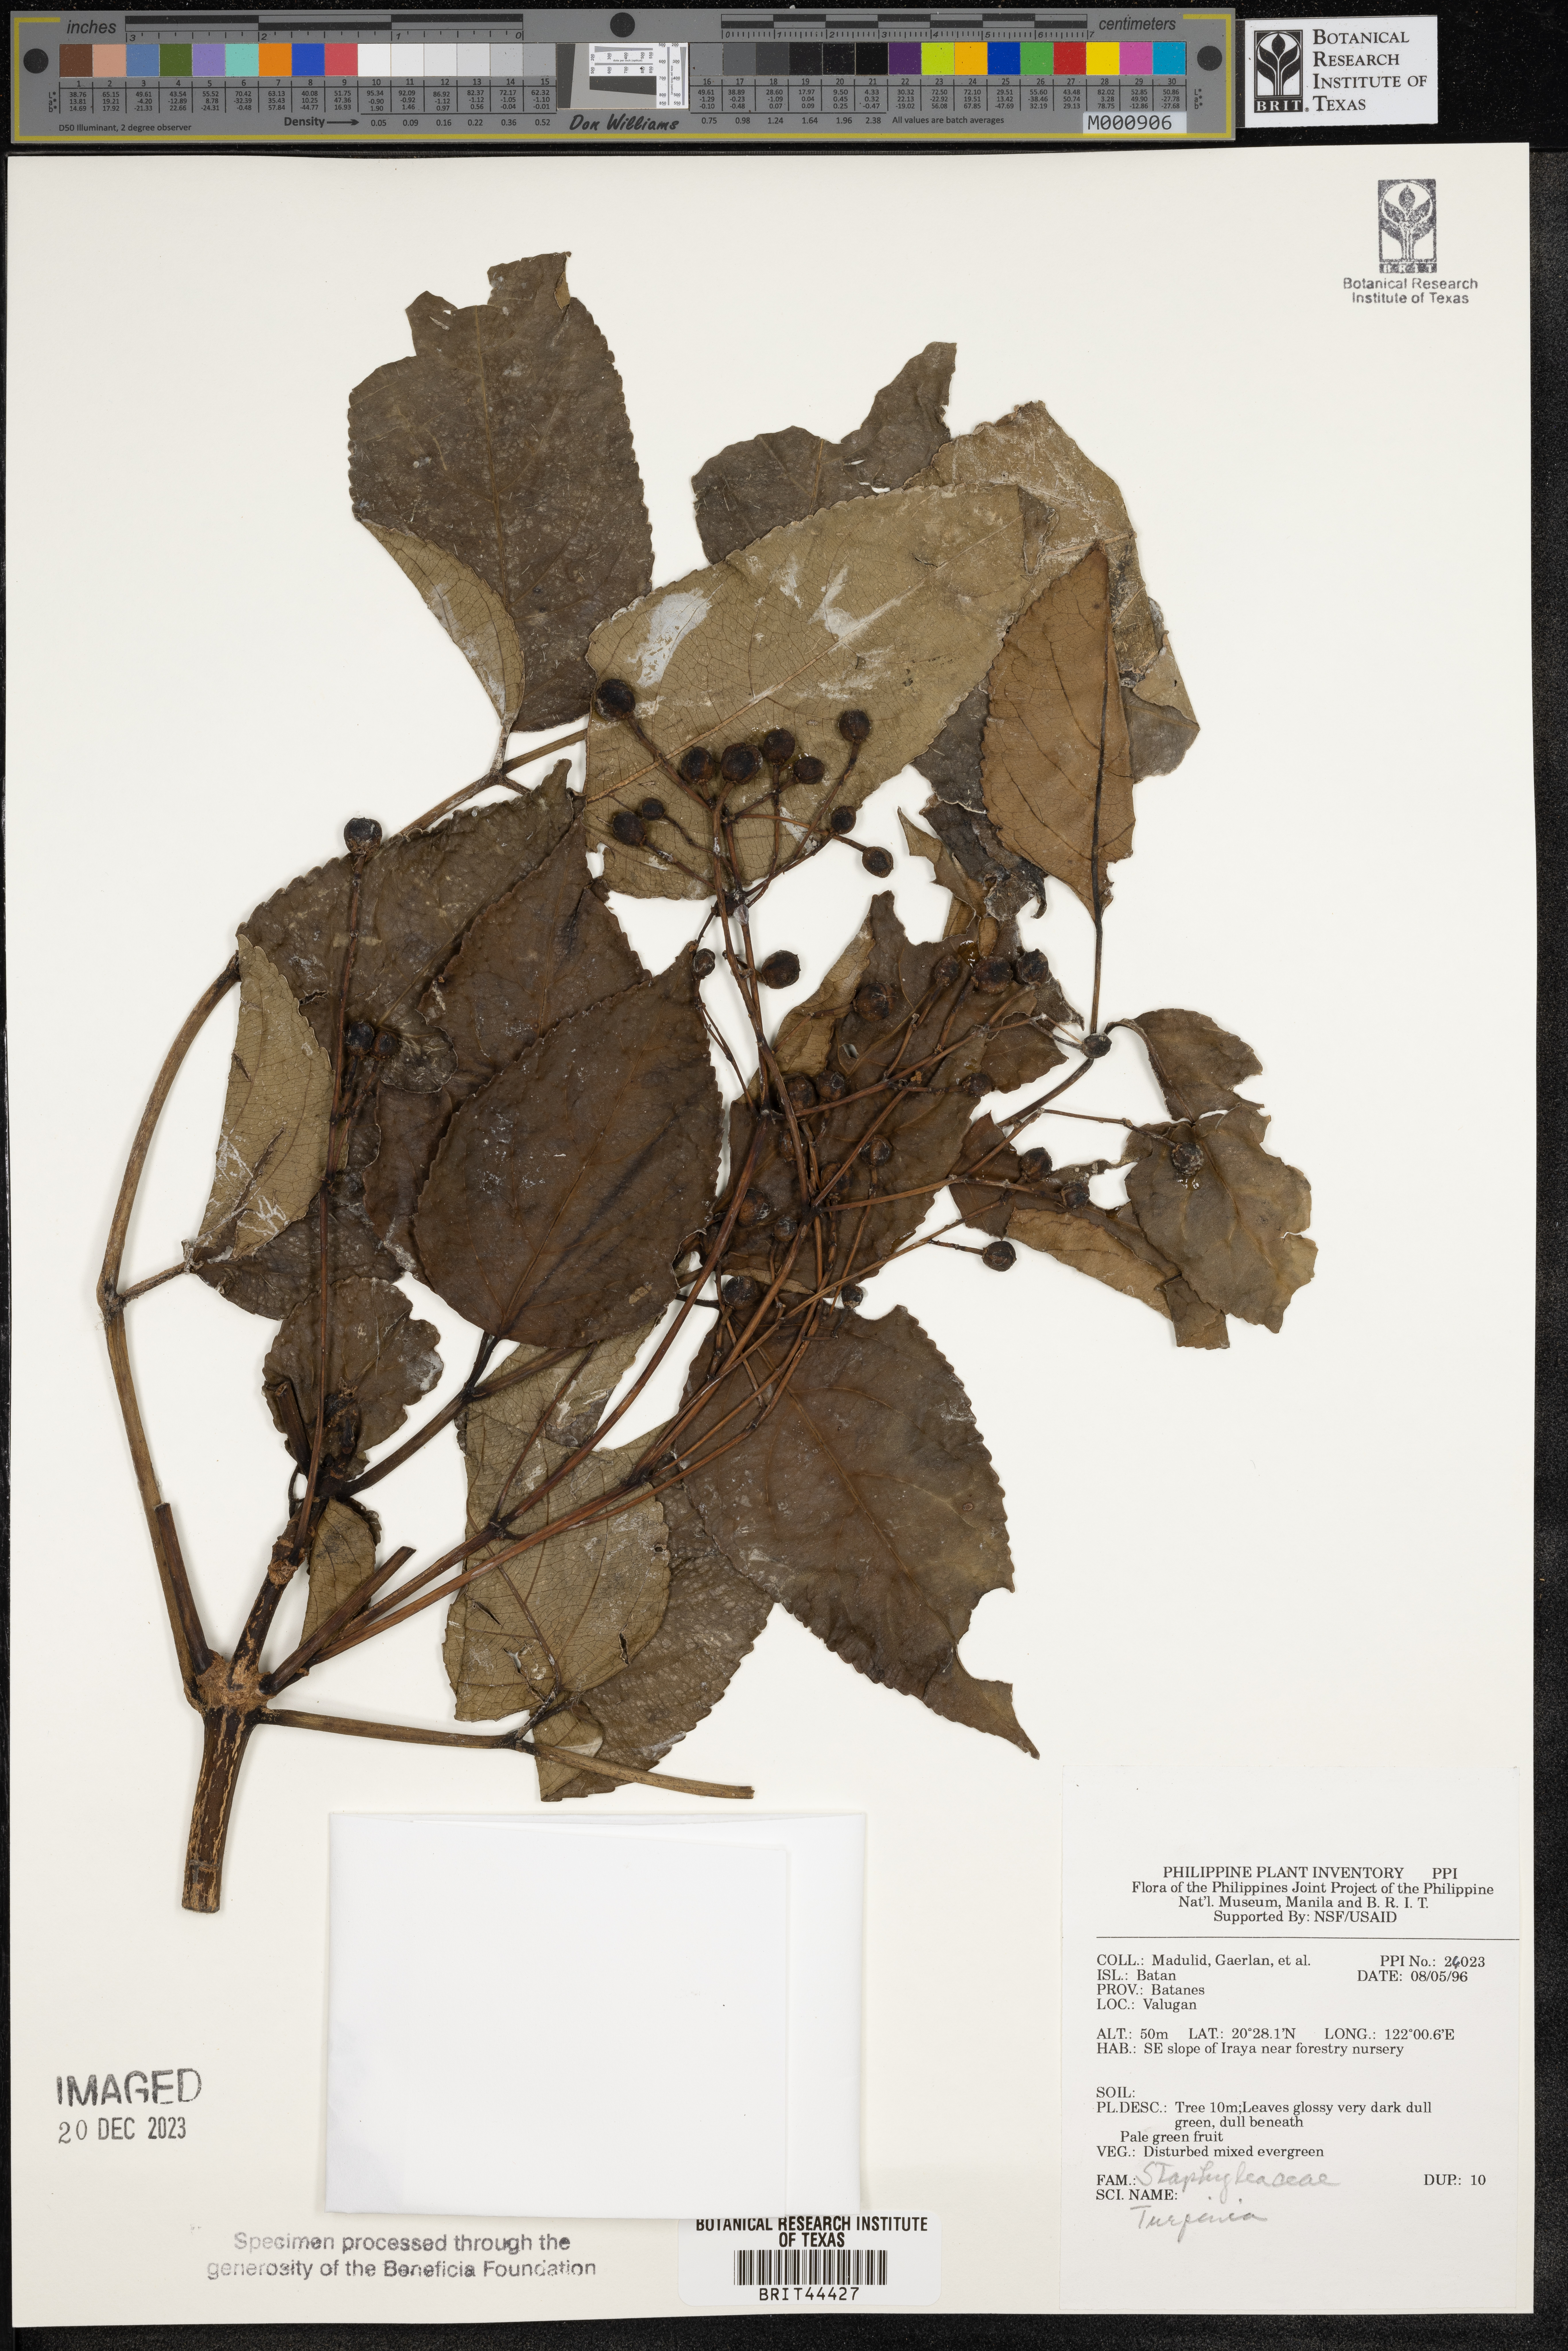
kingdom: Plantae
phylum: Tracheophyta
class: Magnoliopsida
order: Crossosomatales
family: Staphyleaceae
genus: Turpinia
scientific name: Turpinia
